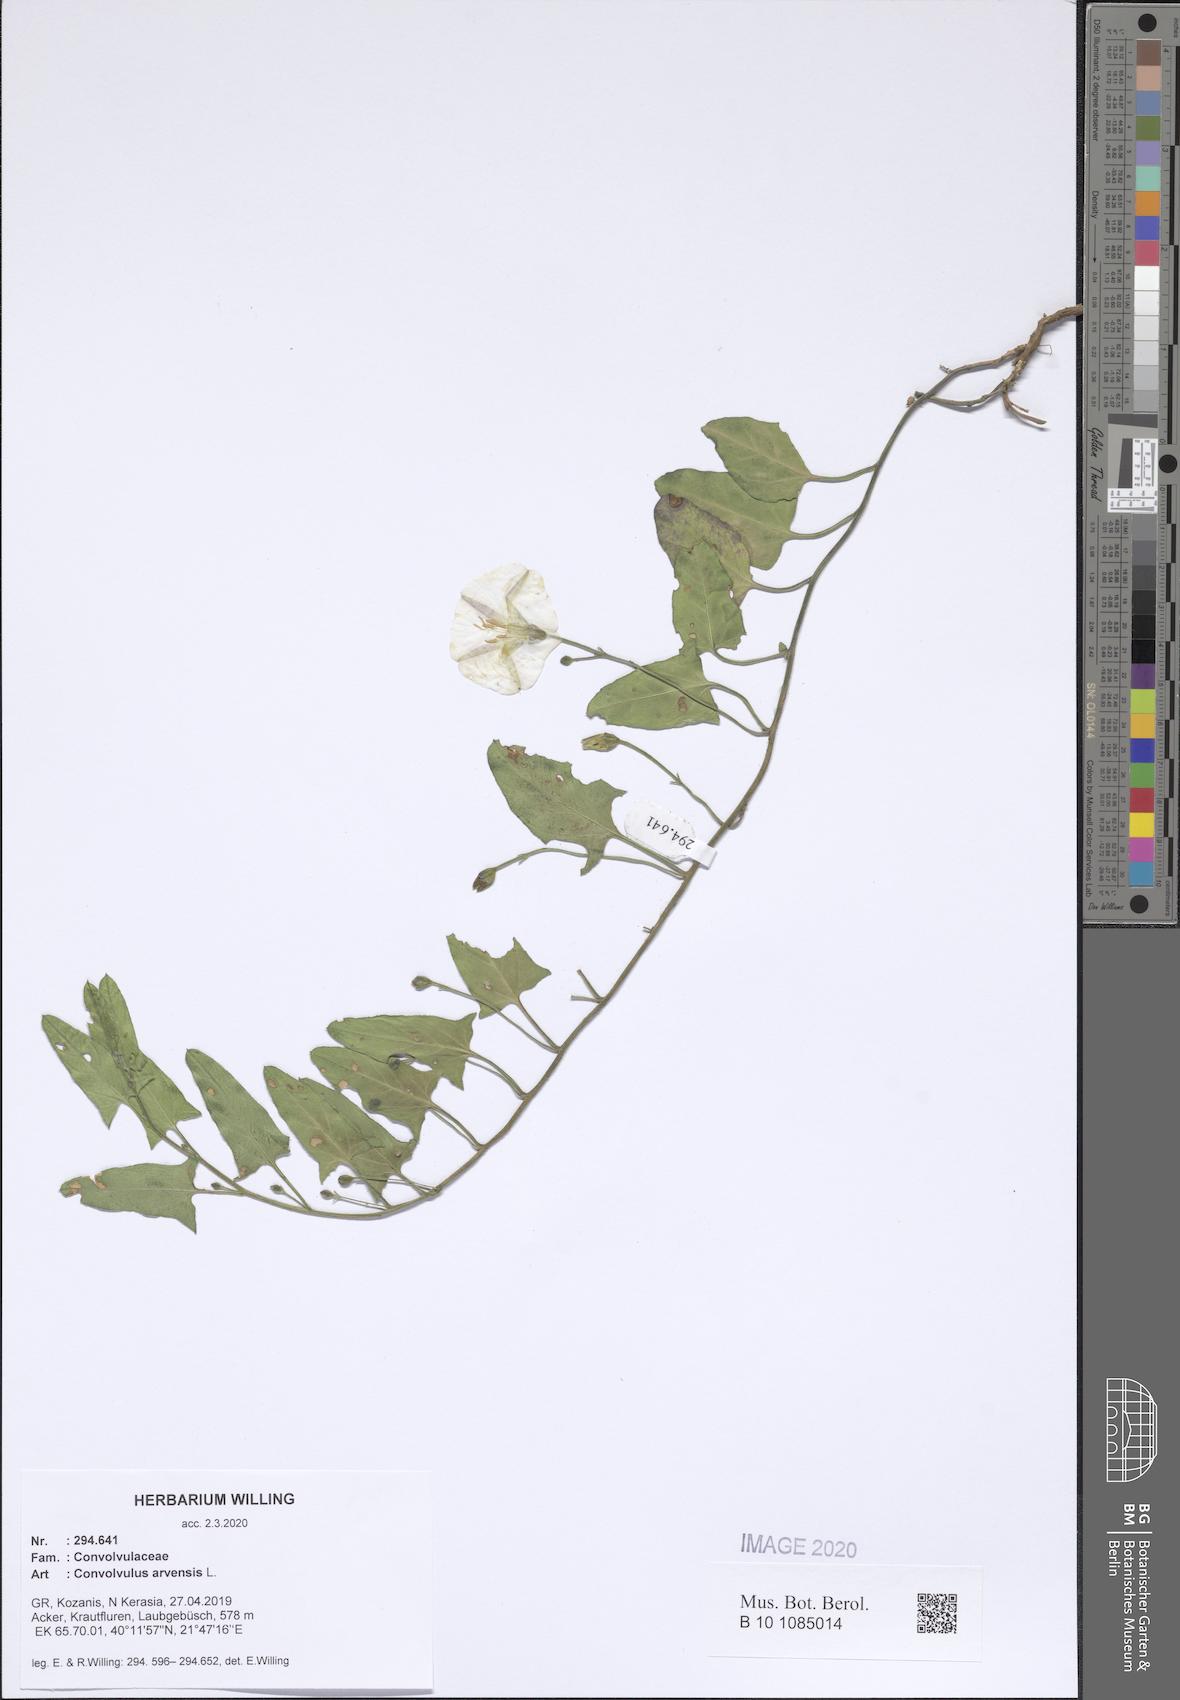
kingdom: Plantae
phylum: Tracheophyta
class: Magnoliopsida
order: Solanales
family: Convolvulaceae
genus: Convolvulus
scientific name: Convolvulus arvensis
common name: Field bindweed
